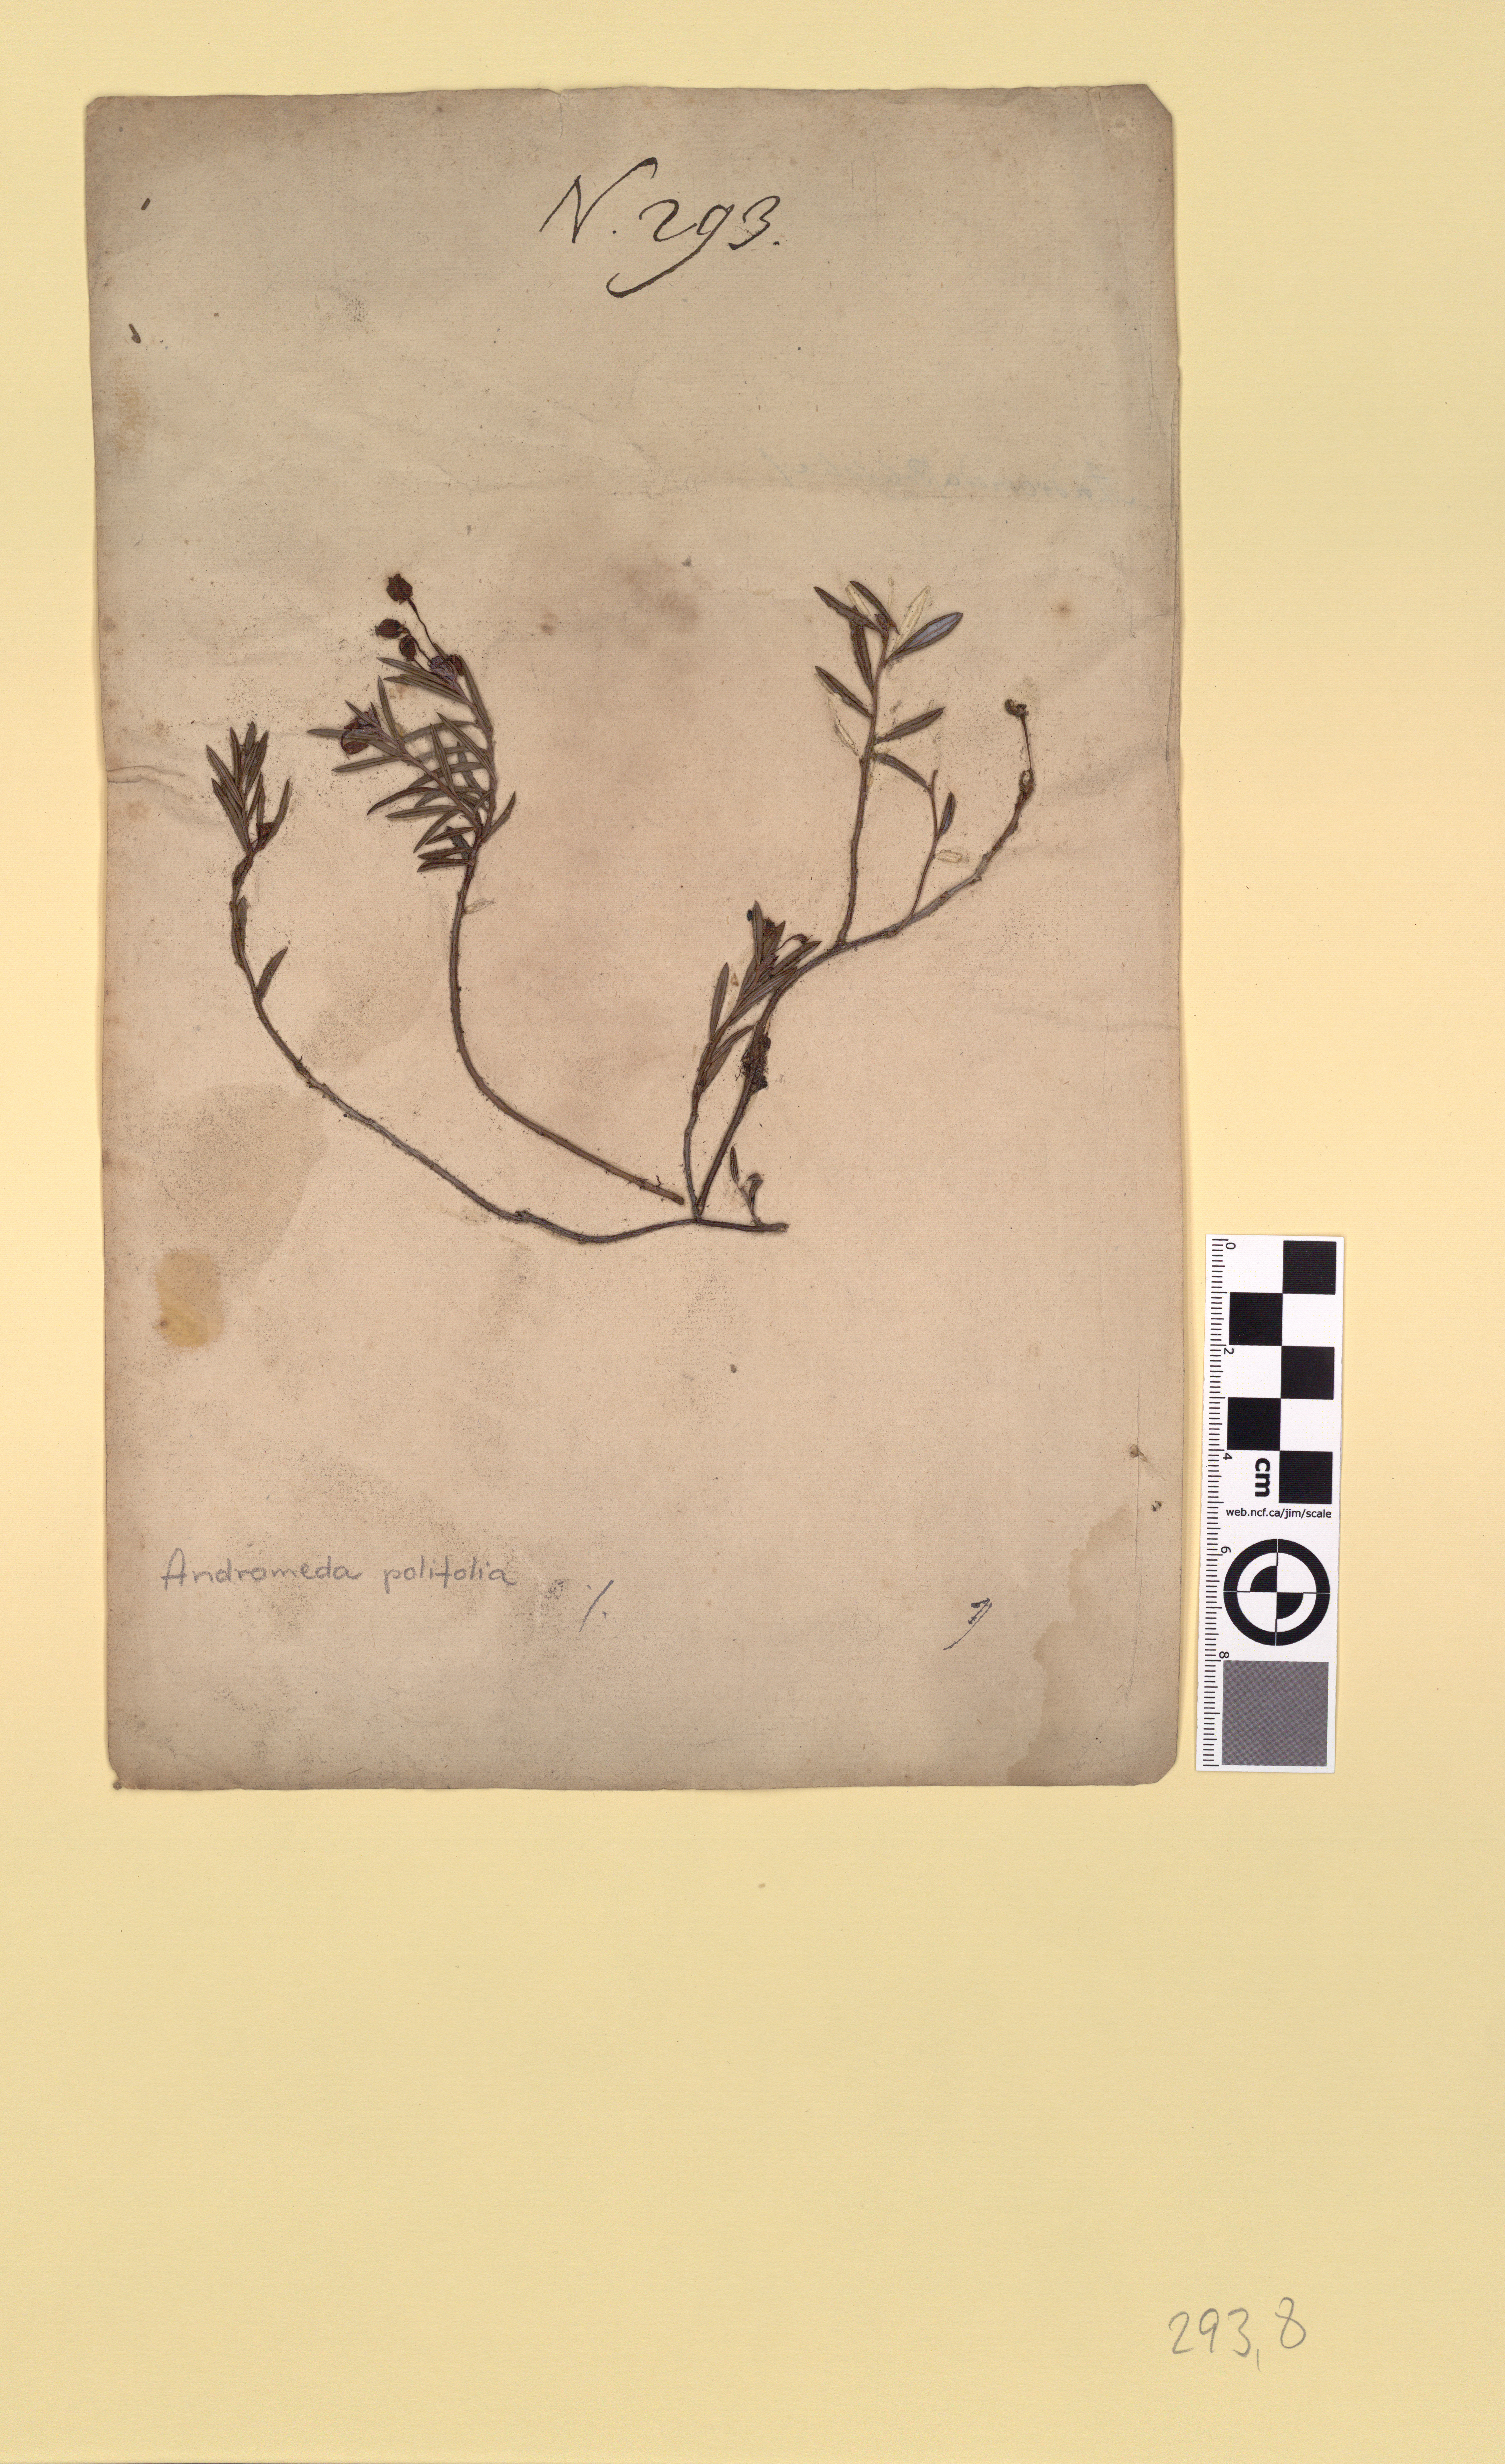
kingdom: Plantae
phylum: Tracheophyta
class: Magnoliopsida
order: Ericales
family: Ericaceae
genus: Andromeda
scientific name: Andromeda polifolia
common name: Bog-rosemary
